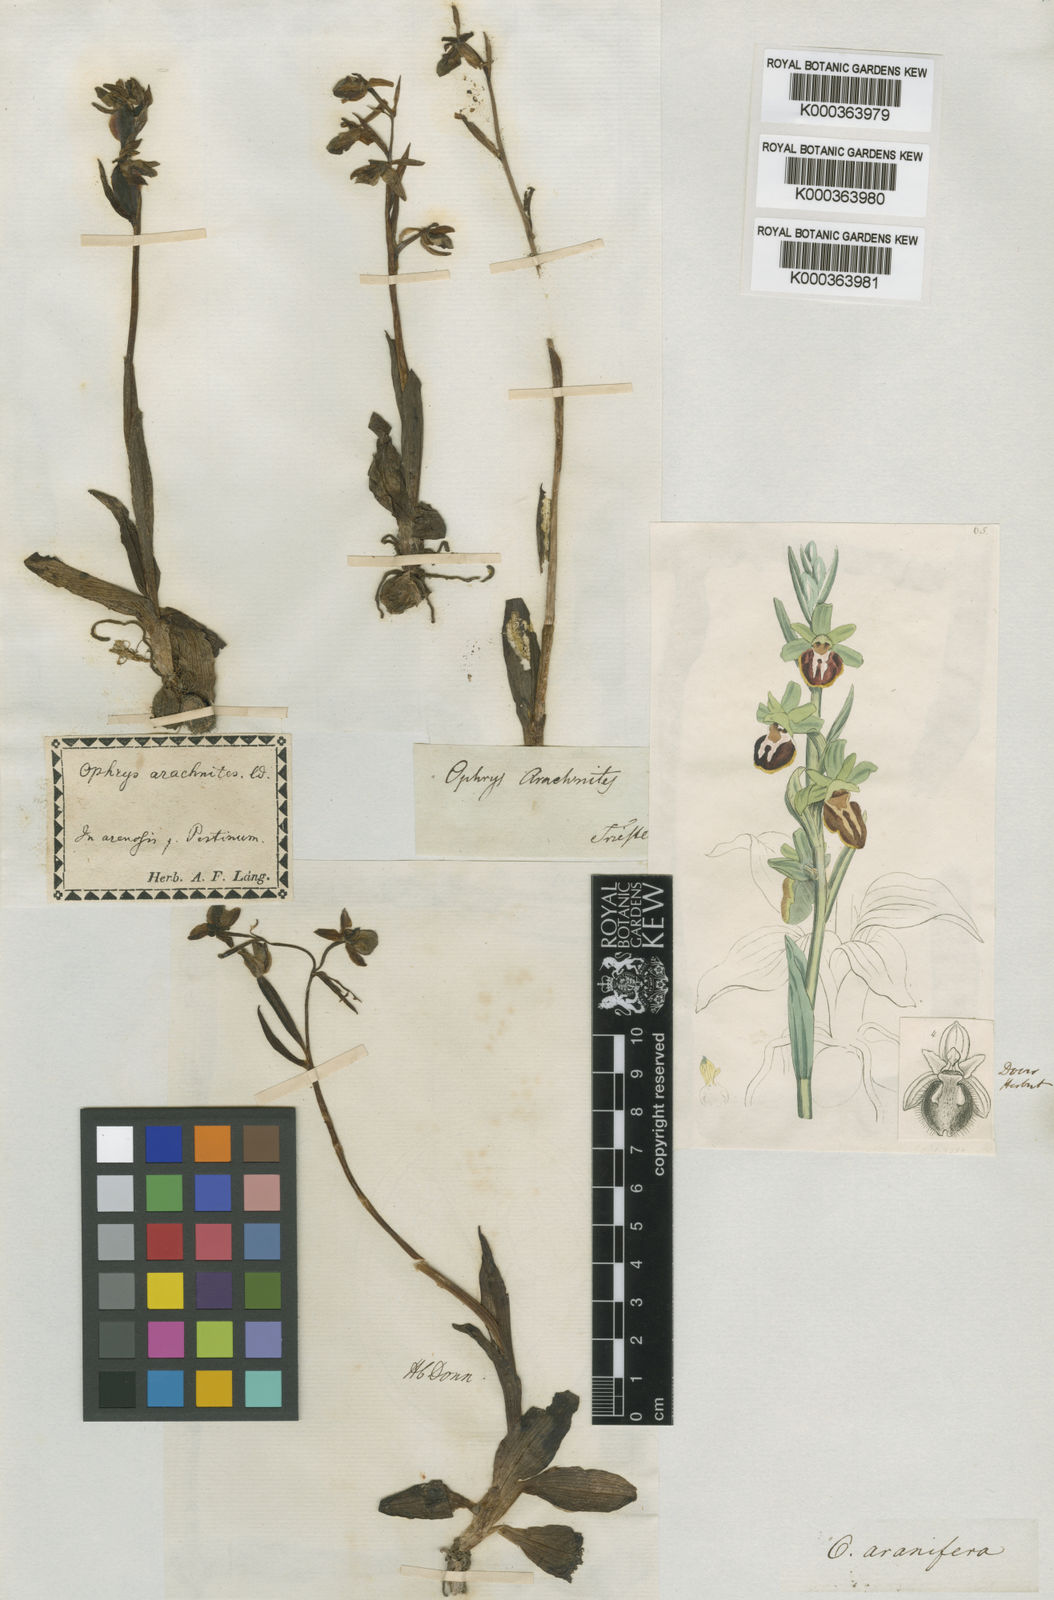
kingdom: Plantae
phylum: Tracheophyta
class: Liliopsida
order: Asparagales
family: Orchidaceae
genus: Ophrys
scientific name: Ophrys sphegodes
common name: Early spider-orchid
